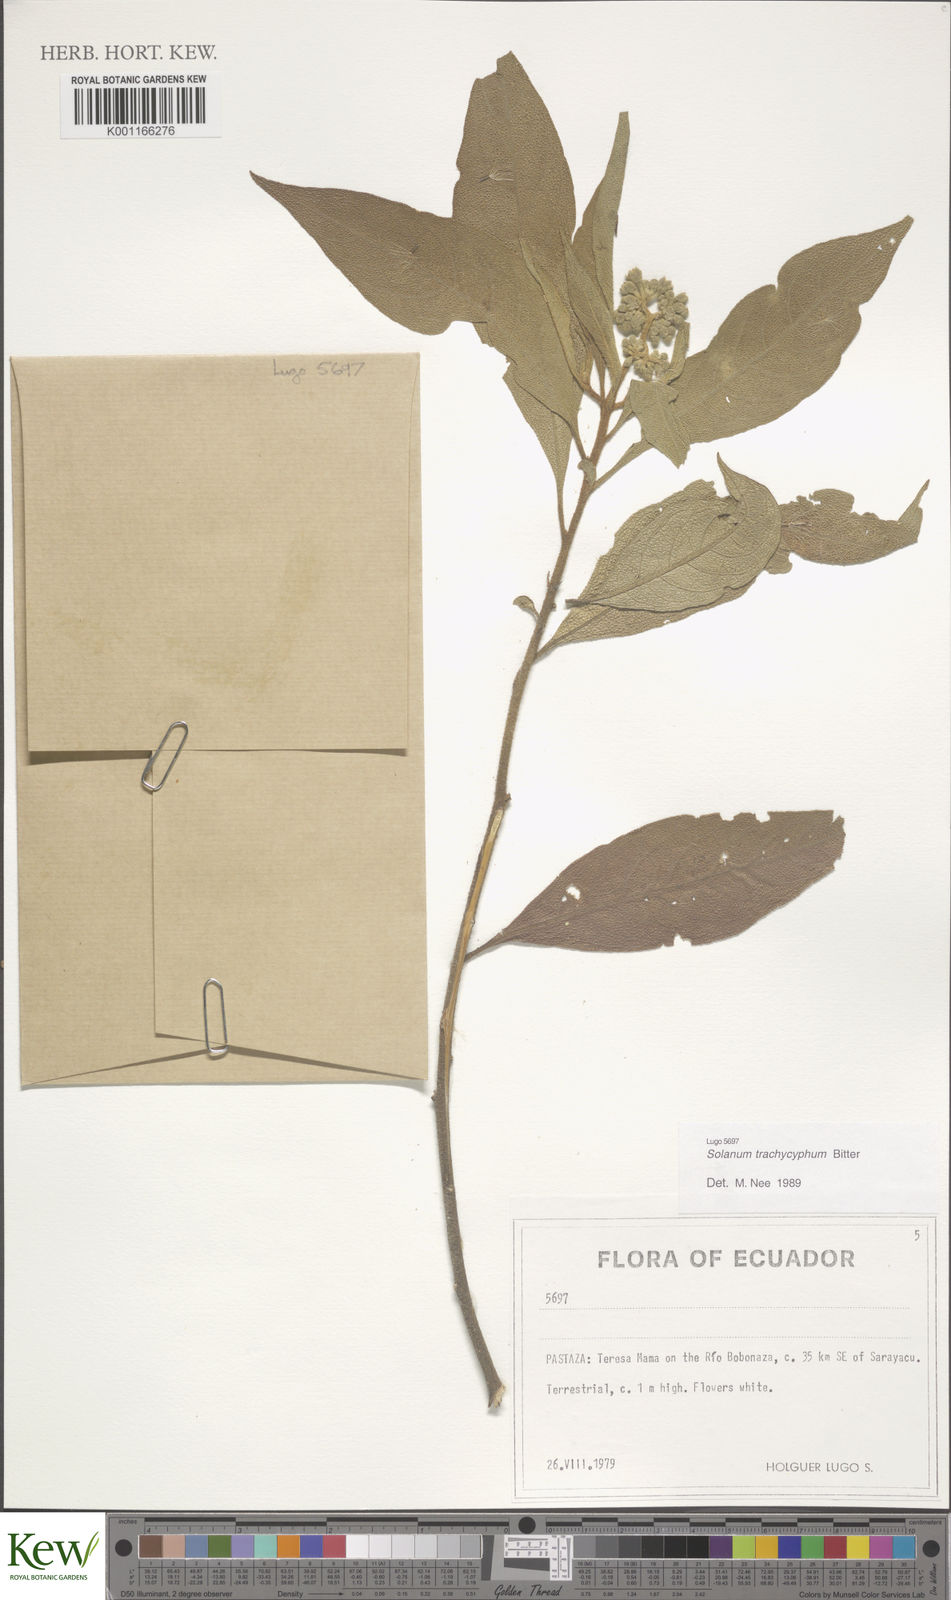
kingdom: Plantae
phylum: Tracheophyta
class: Magnoliopsida
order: Solanales
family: Solanaceae
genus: Solanum
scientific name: Solanum trachycyphum
